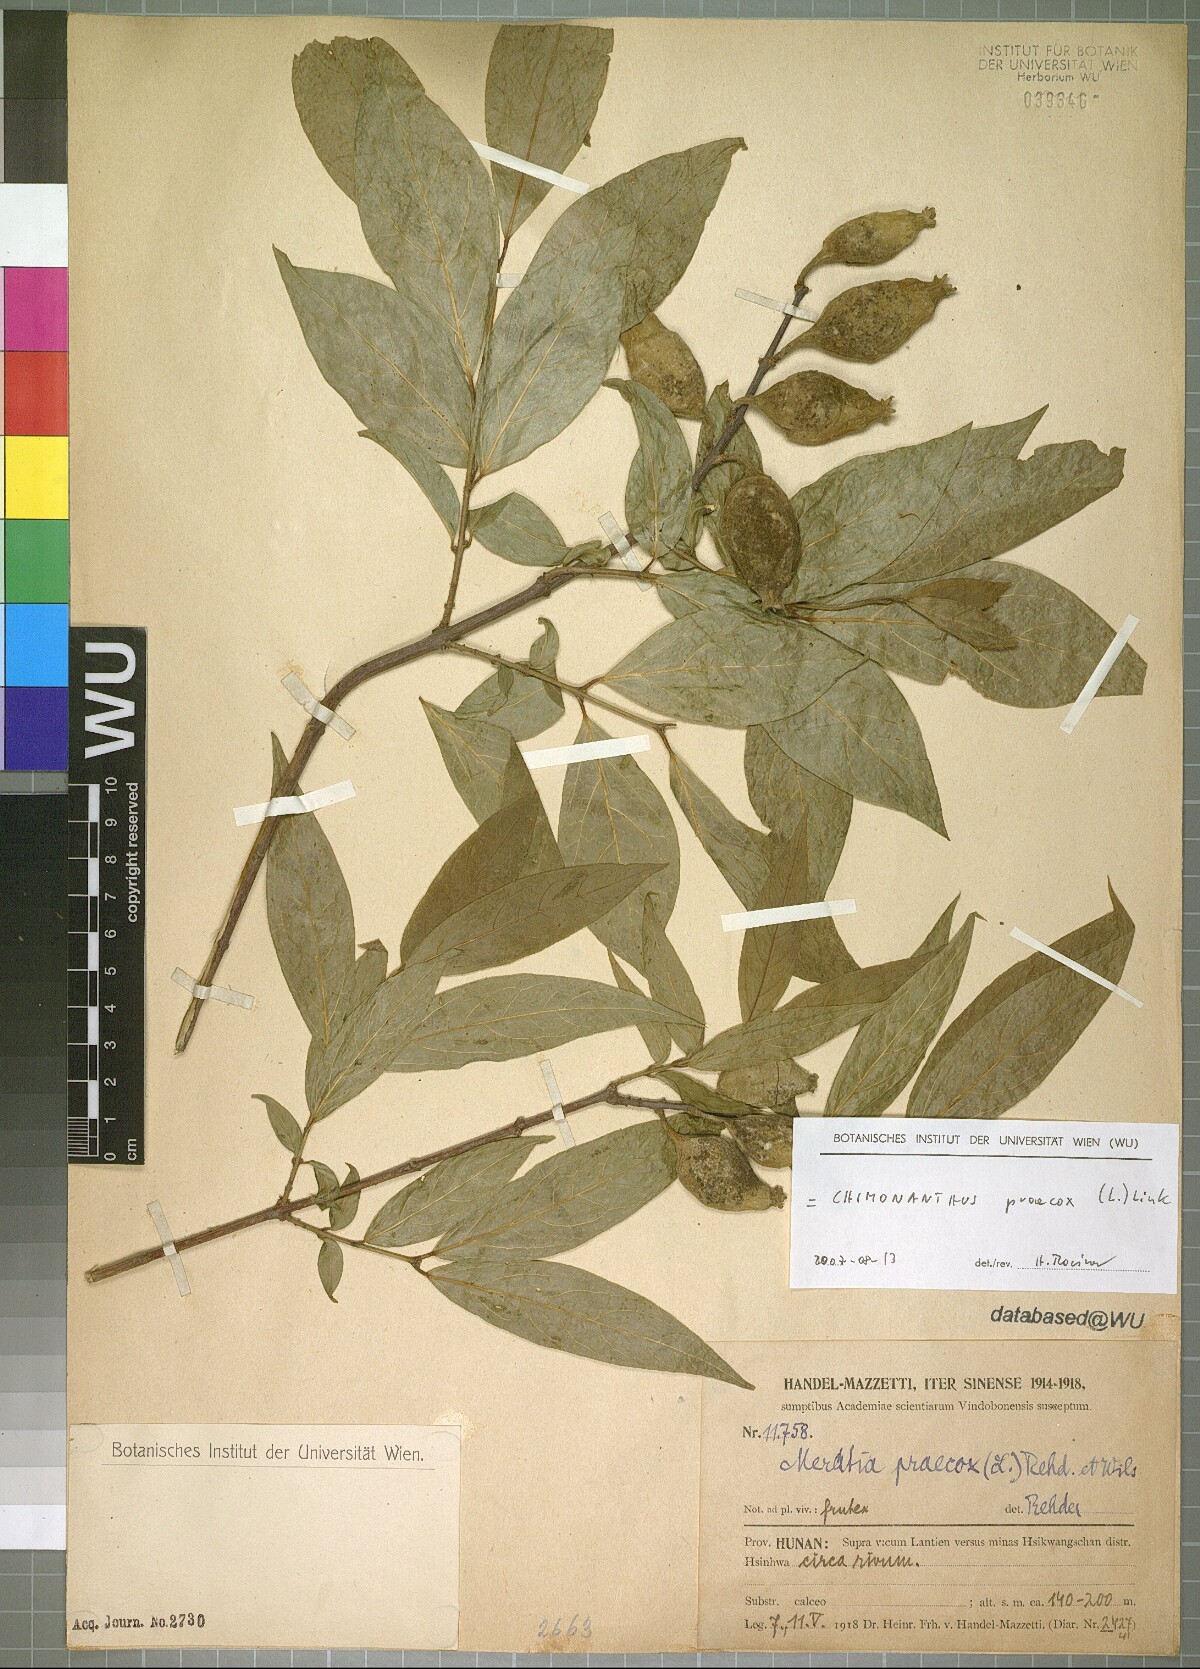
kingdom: Plantae
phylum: Tracheophyta
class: Magnoliopsida
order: Laurales
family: Calycanthaceae
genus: Chimonanthus
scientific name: Chimonanthus praecox
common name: Wintersweet
